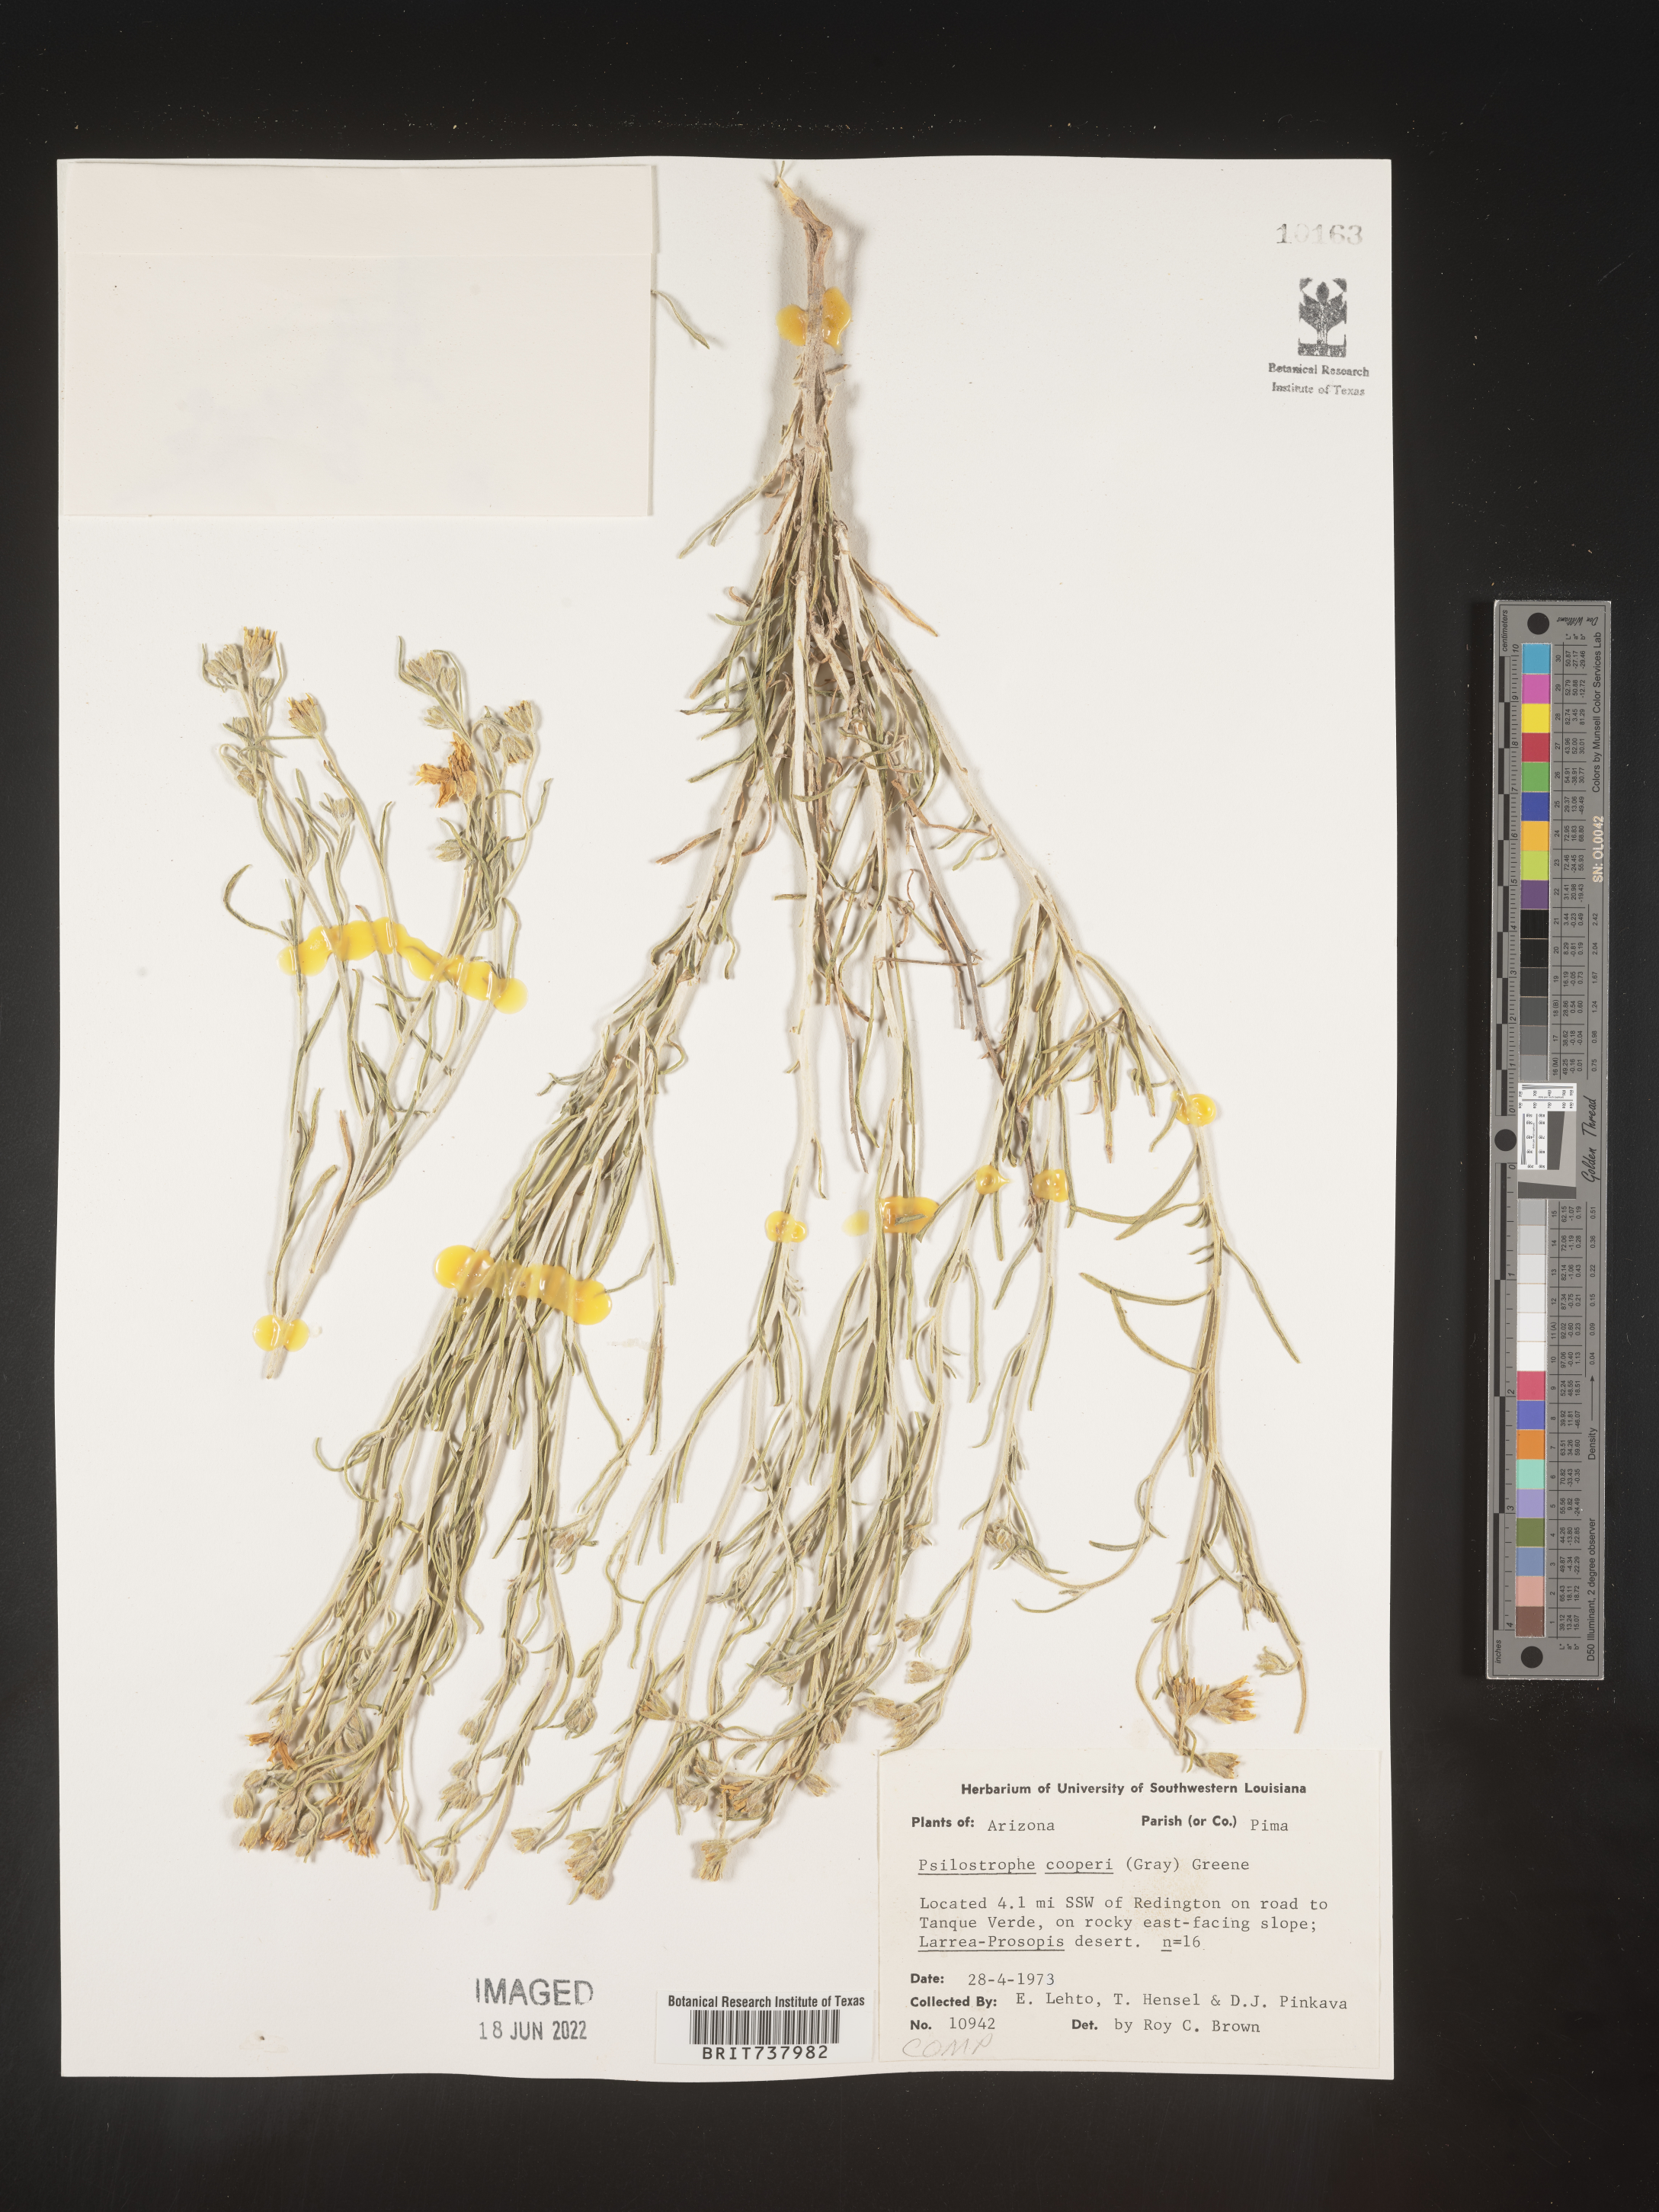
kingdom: Plantae
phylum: Tracheophyta
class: Magnoliopsida
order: Asterales
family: Asteraceae
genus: Psilostrophe
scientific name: Psilostrophe
